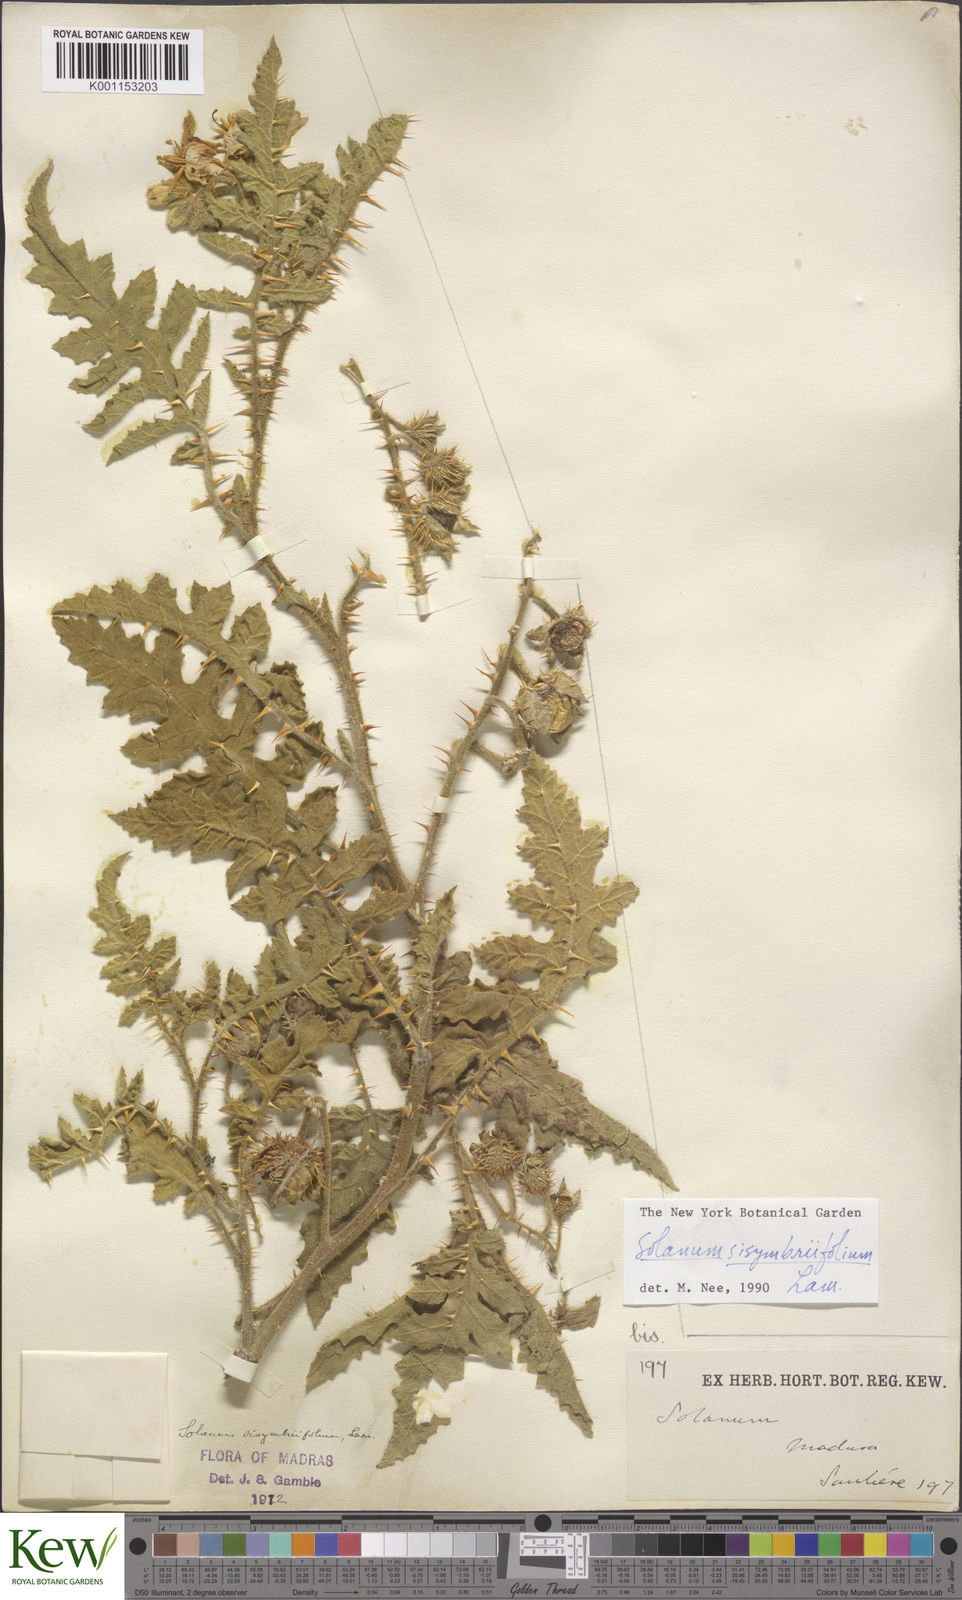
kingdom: Plantae
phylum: Tracheophyta
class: Magnoliopsida
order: Solanales
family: Solanaceae
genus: Solanum
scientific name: Solanum sisymbriifolium
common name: Red buffalo-bur
